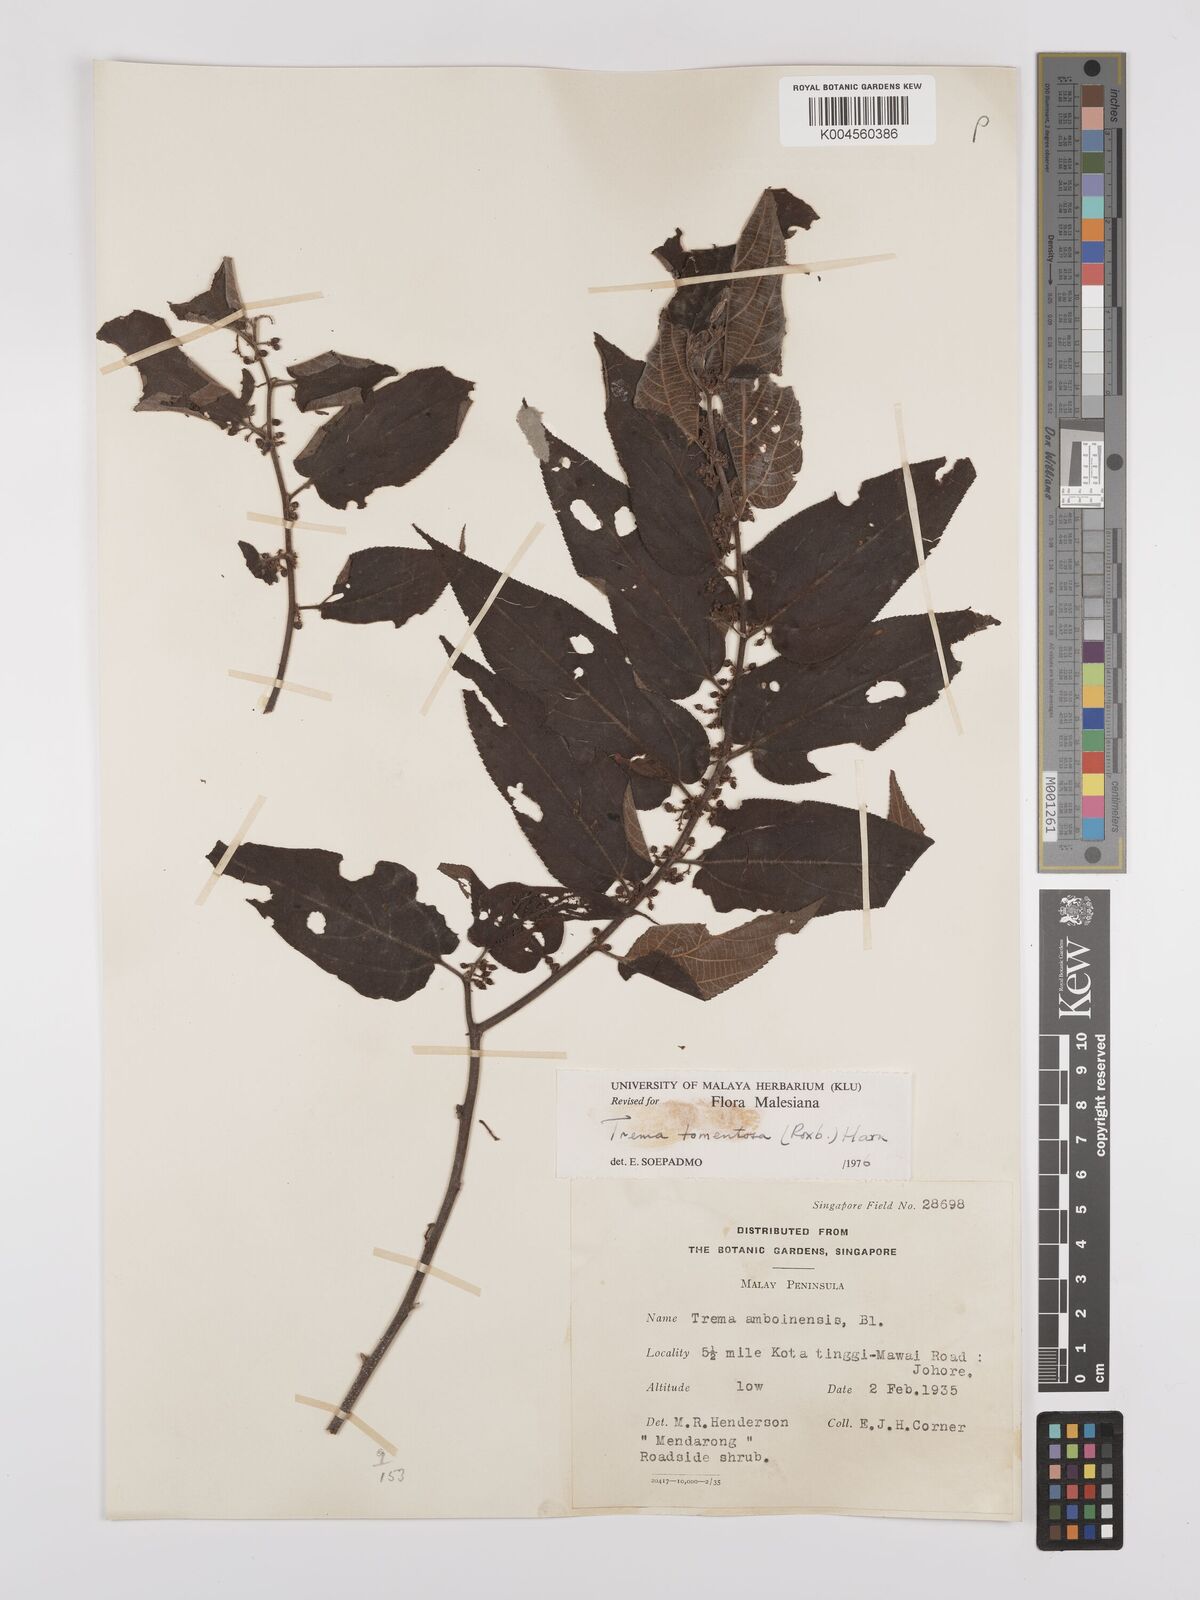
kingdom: Plantae
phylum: Tracheophyta
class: Magnoliopsida
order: Rosales
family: Cannabaceae
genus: Trema
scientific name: Trema tomentosum
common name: Peach-leaf-poisonbush
